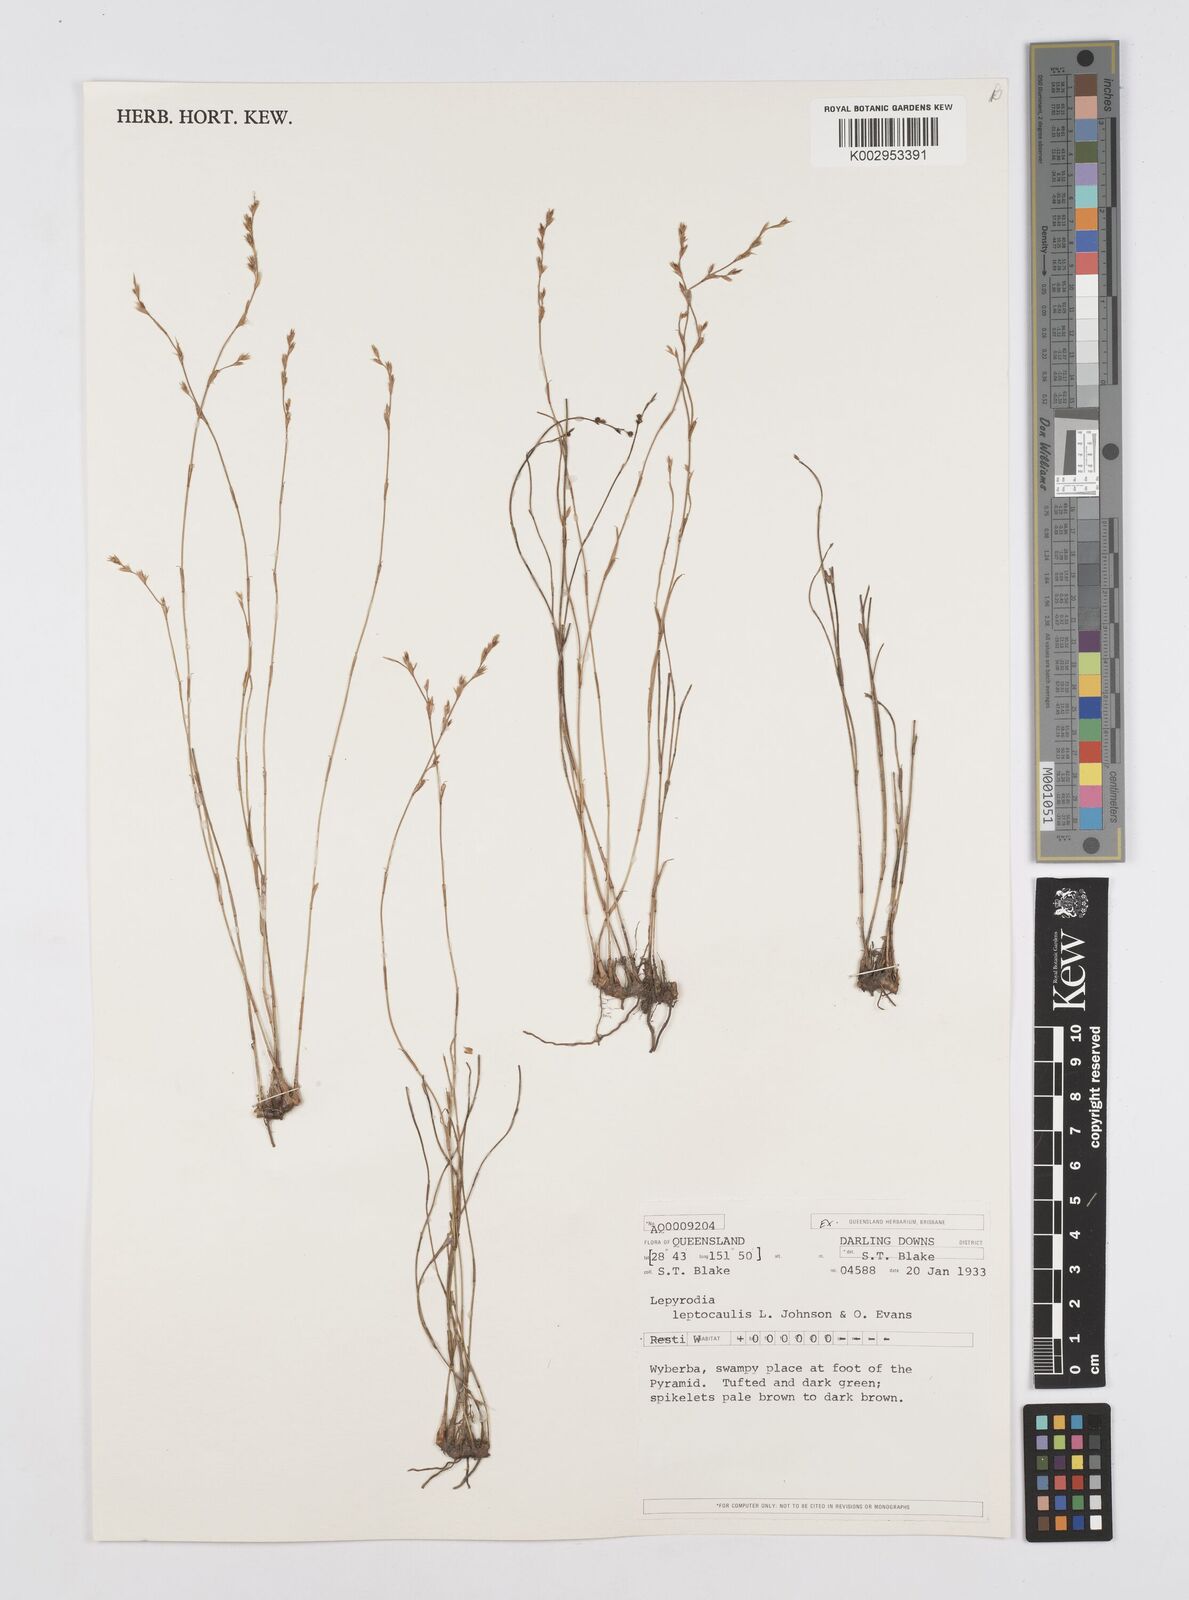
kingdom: Plantae
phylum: Tracheophyta
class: Liliopsida
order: Poales
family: Restionaceae
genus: Lepyrodia
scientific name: Lepyrodia leptocaulis
